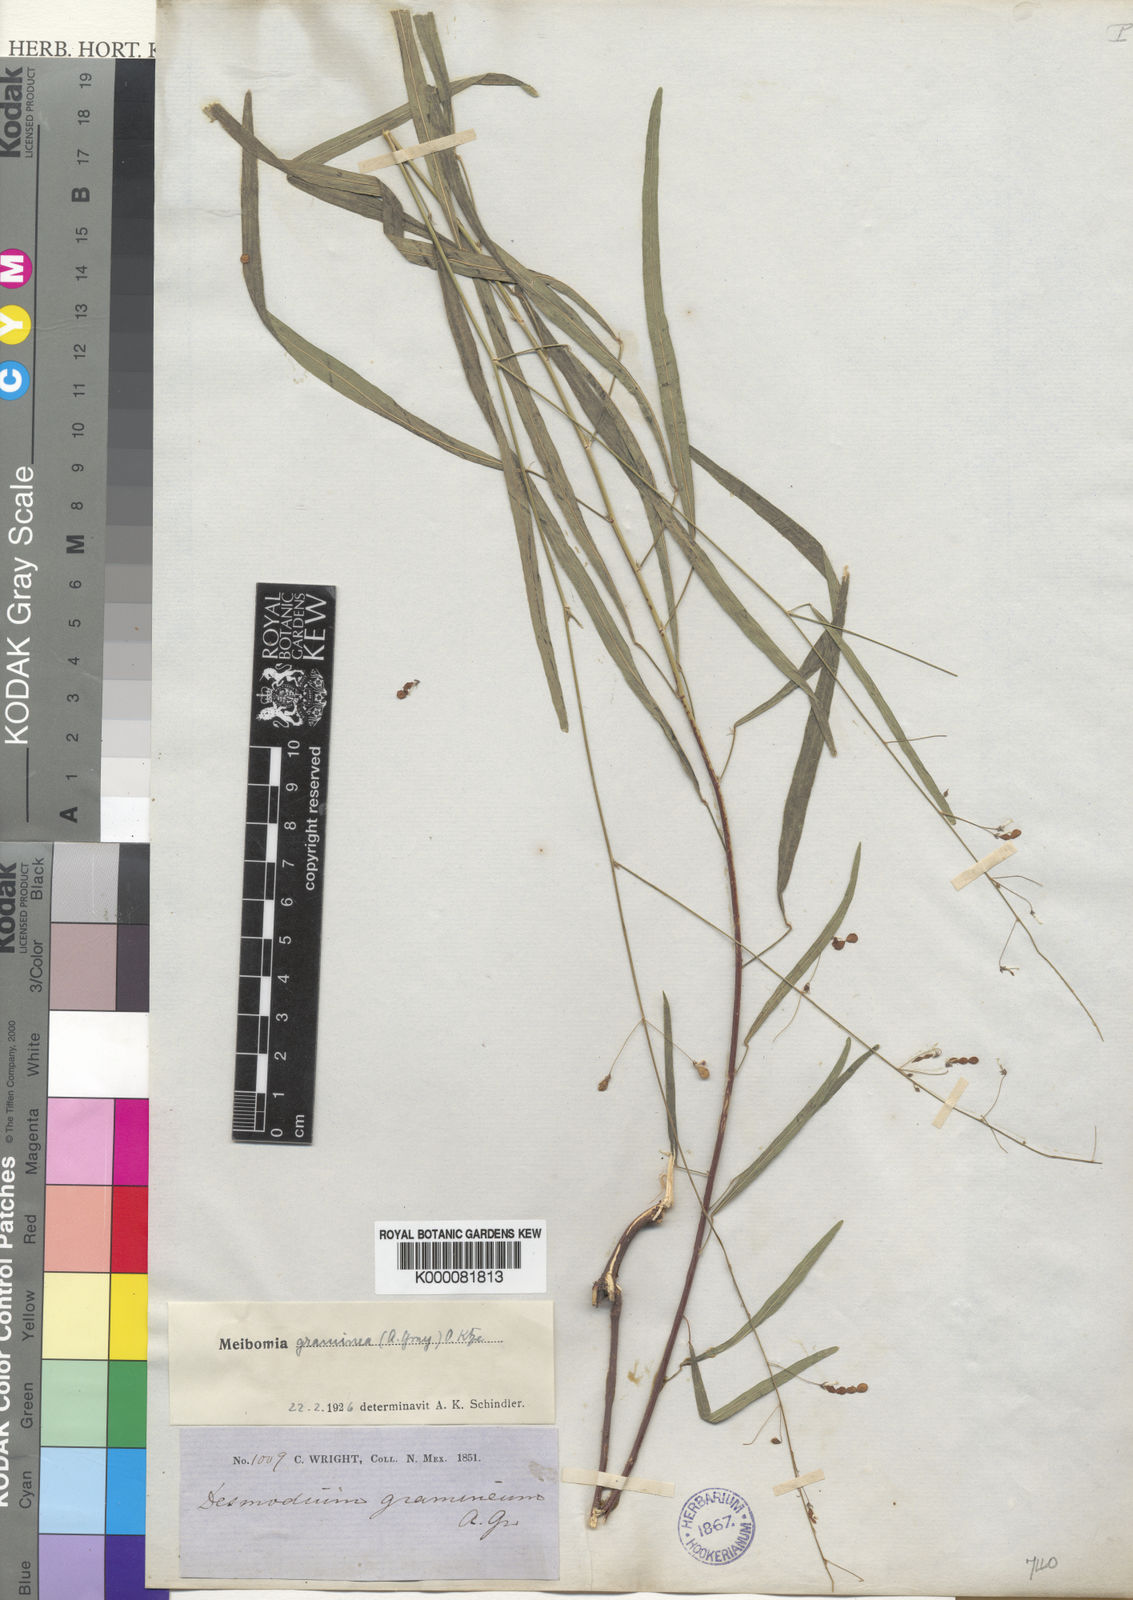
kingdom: Plantae
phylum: Tracheophyta
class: Magnoliopsida
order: Fabales
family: Fabaceae
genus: Desmodium
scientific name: Desmodium angustifolium
